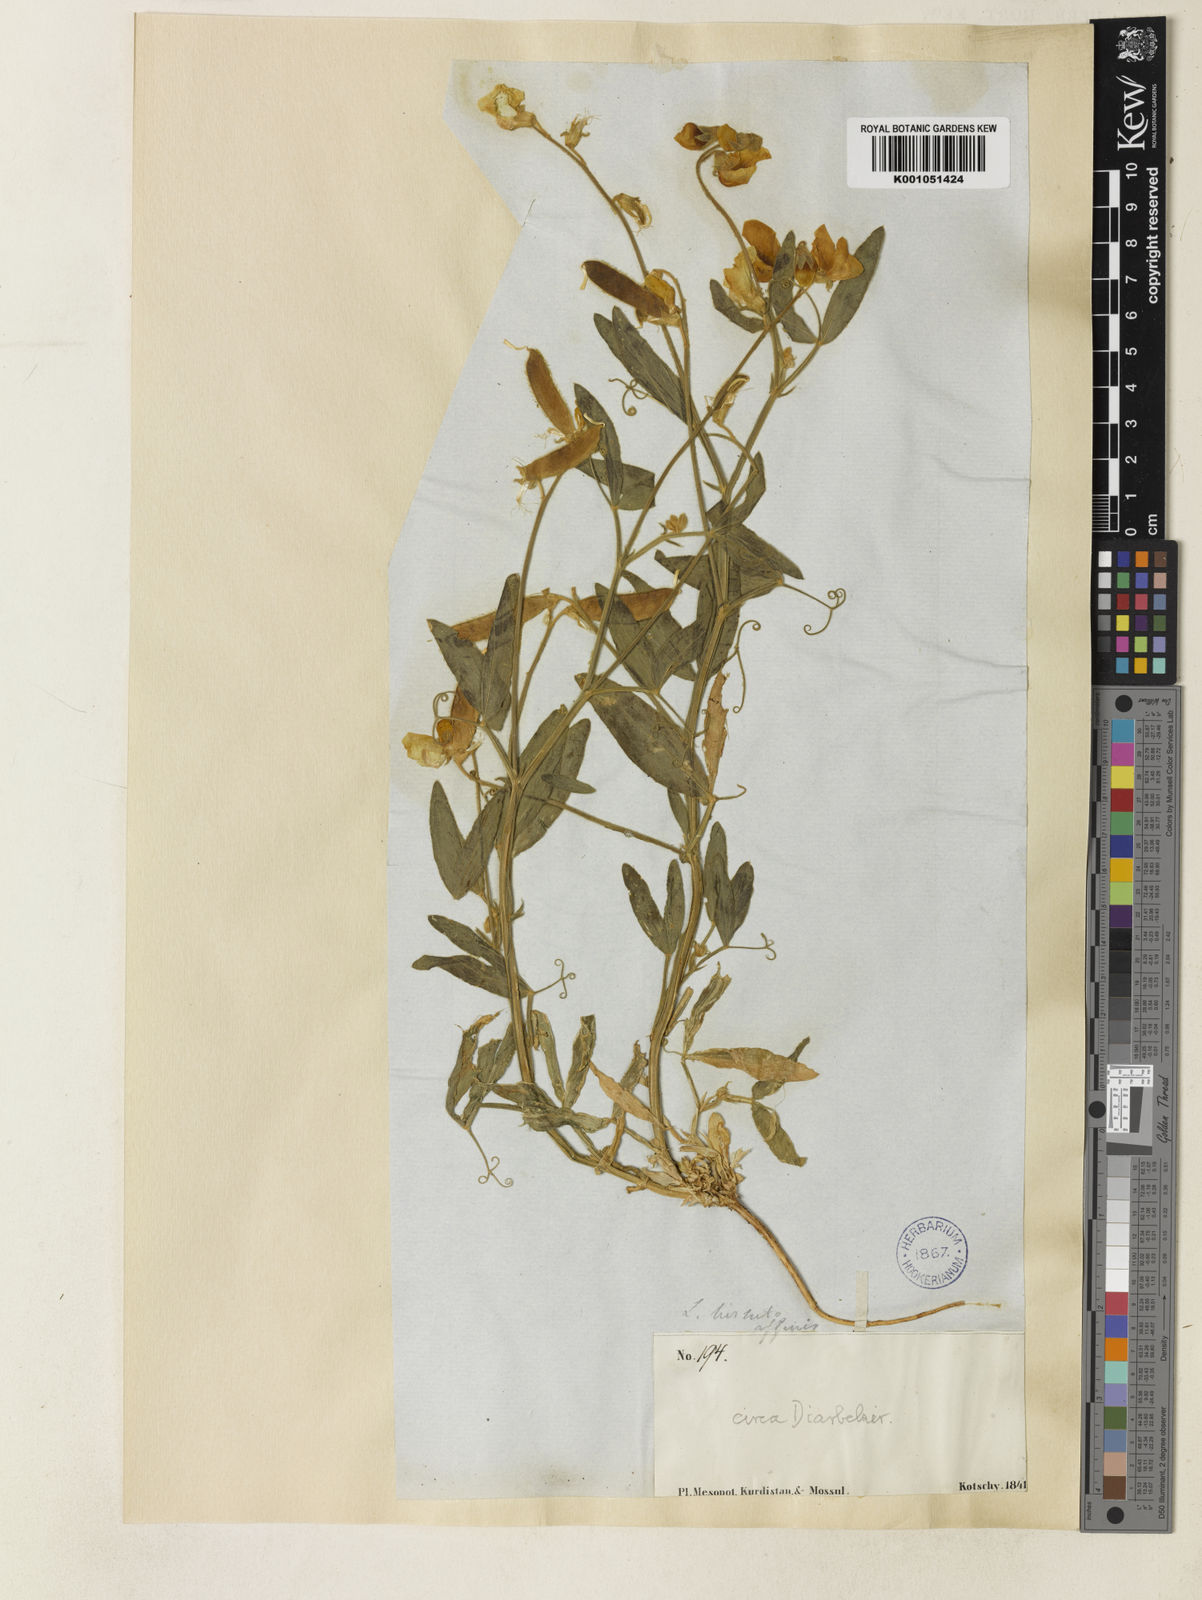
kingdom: Plantae
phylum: Tracheophyta
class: Magnoliopsida
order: Fabales
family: Fabaceae
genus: Lathyrus
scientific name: Lathyrus chrysanthus
